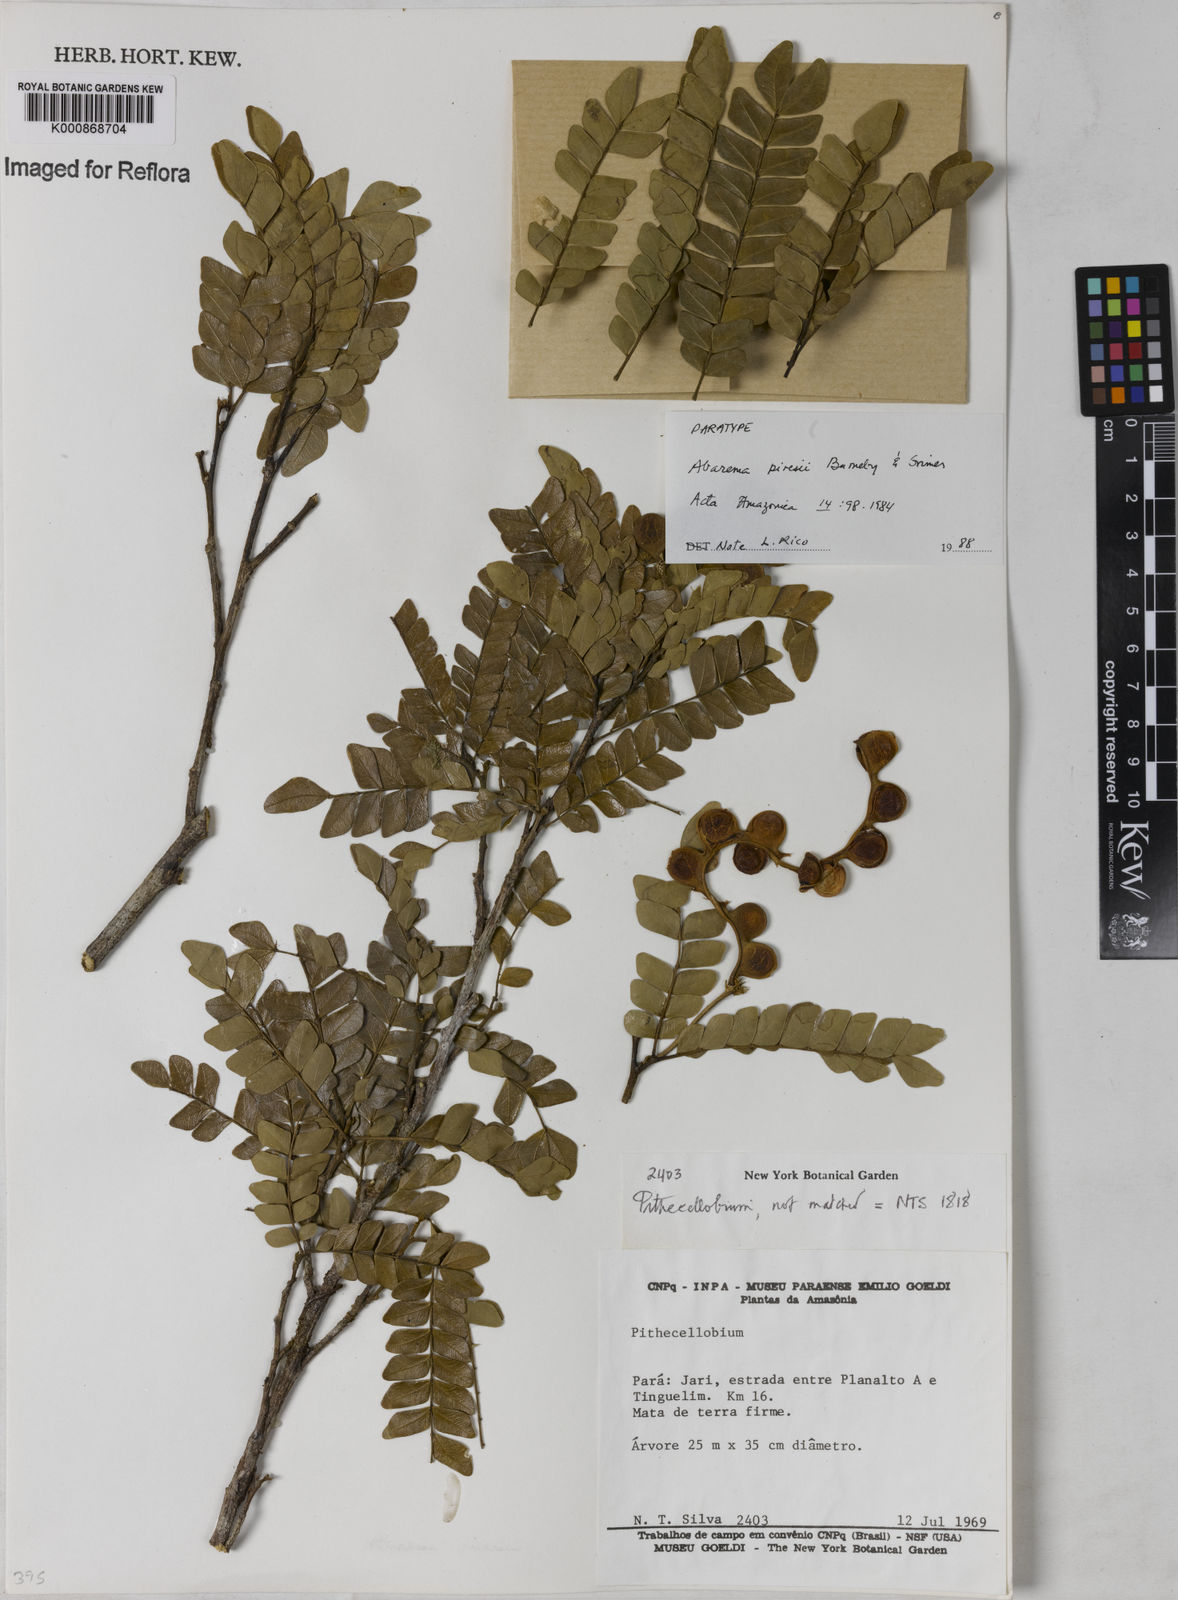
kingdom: Plantae
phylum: Tracheophyta
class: Magnoliopsida
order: Fabales
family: Fabaceae
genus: Jupunba
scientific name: Jupunba piresii
